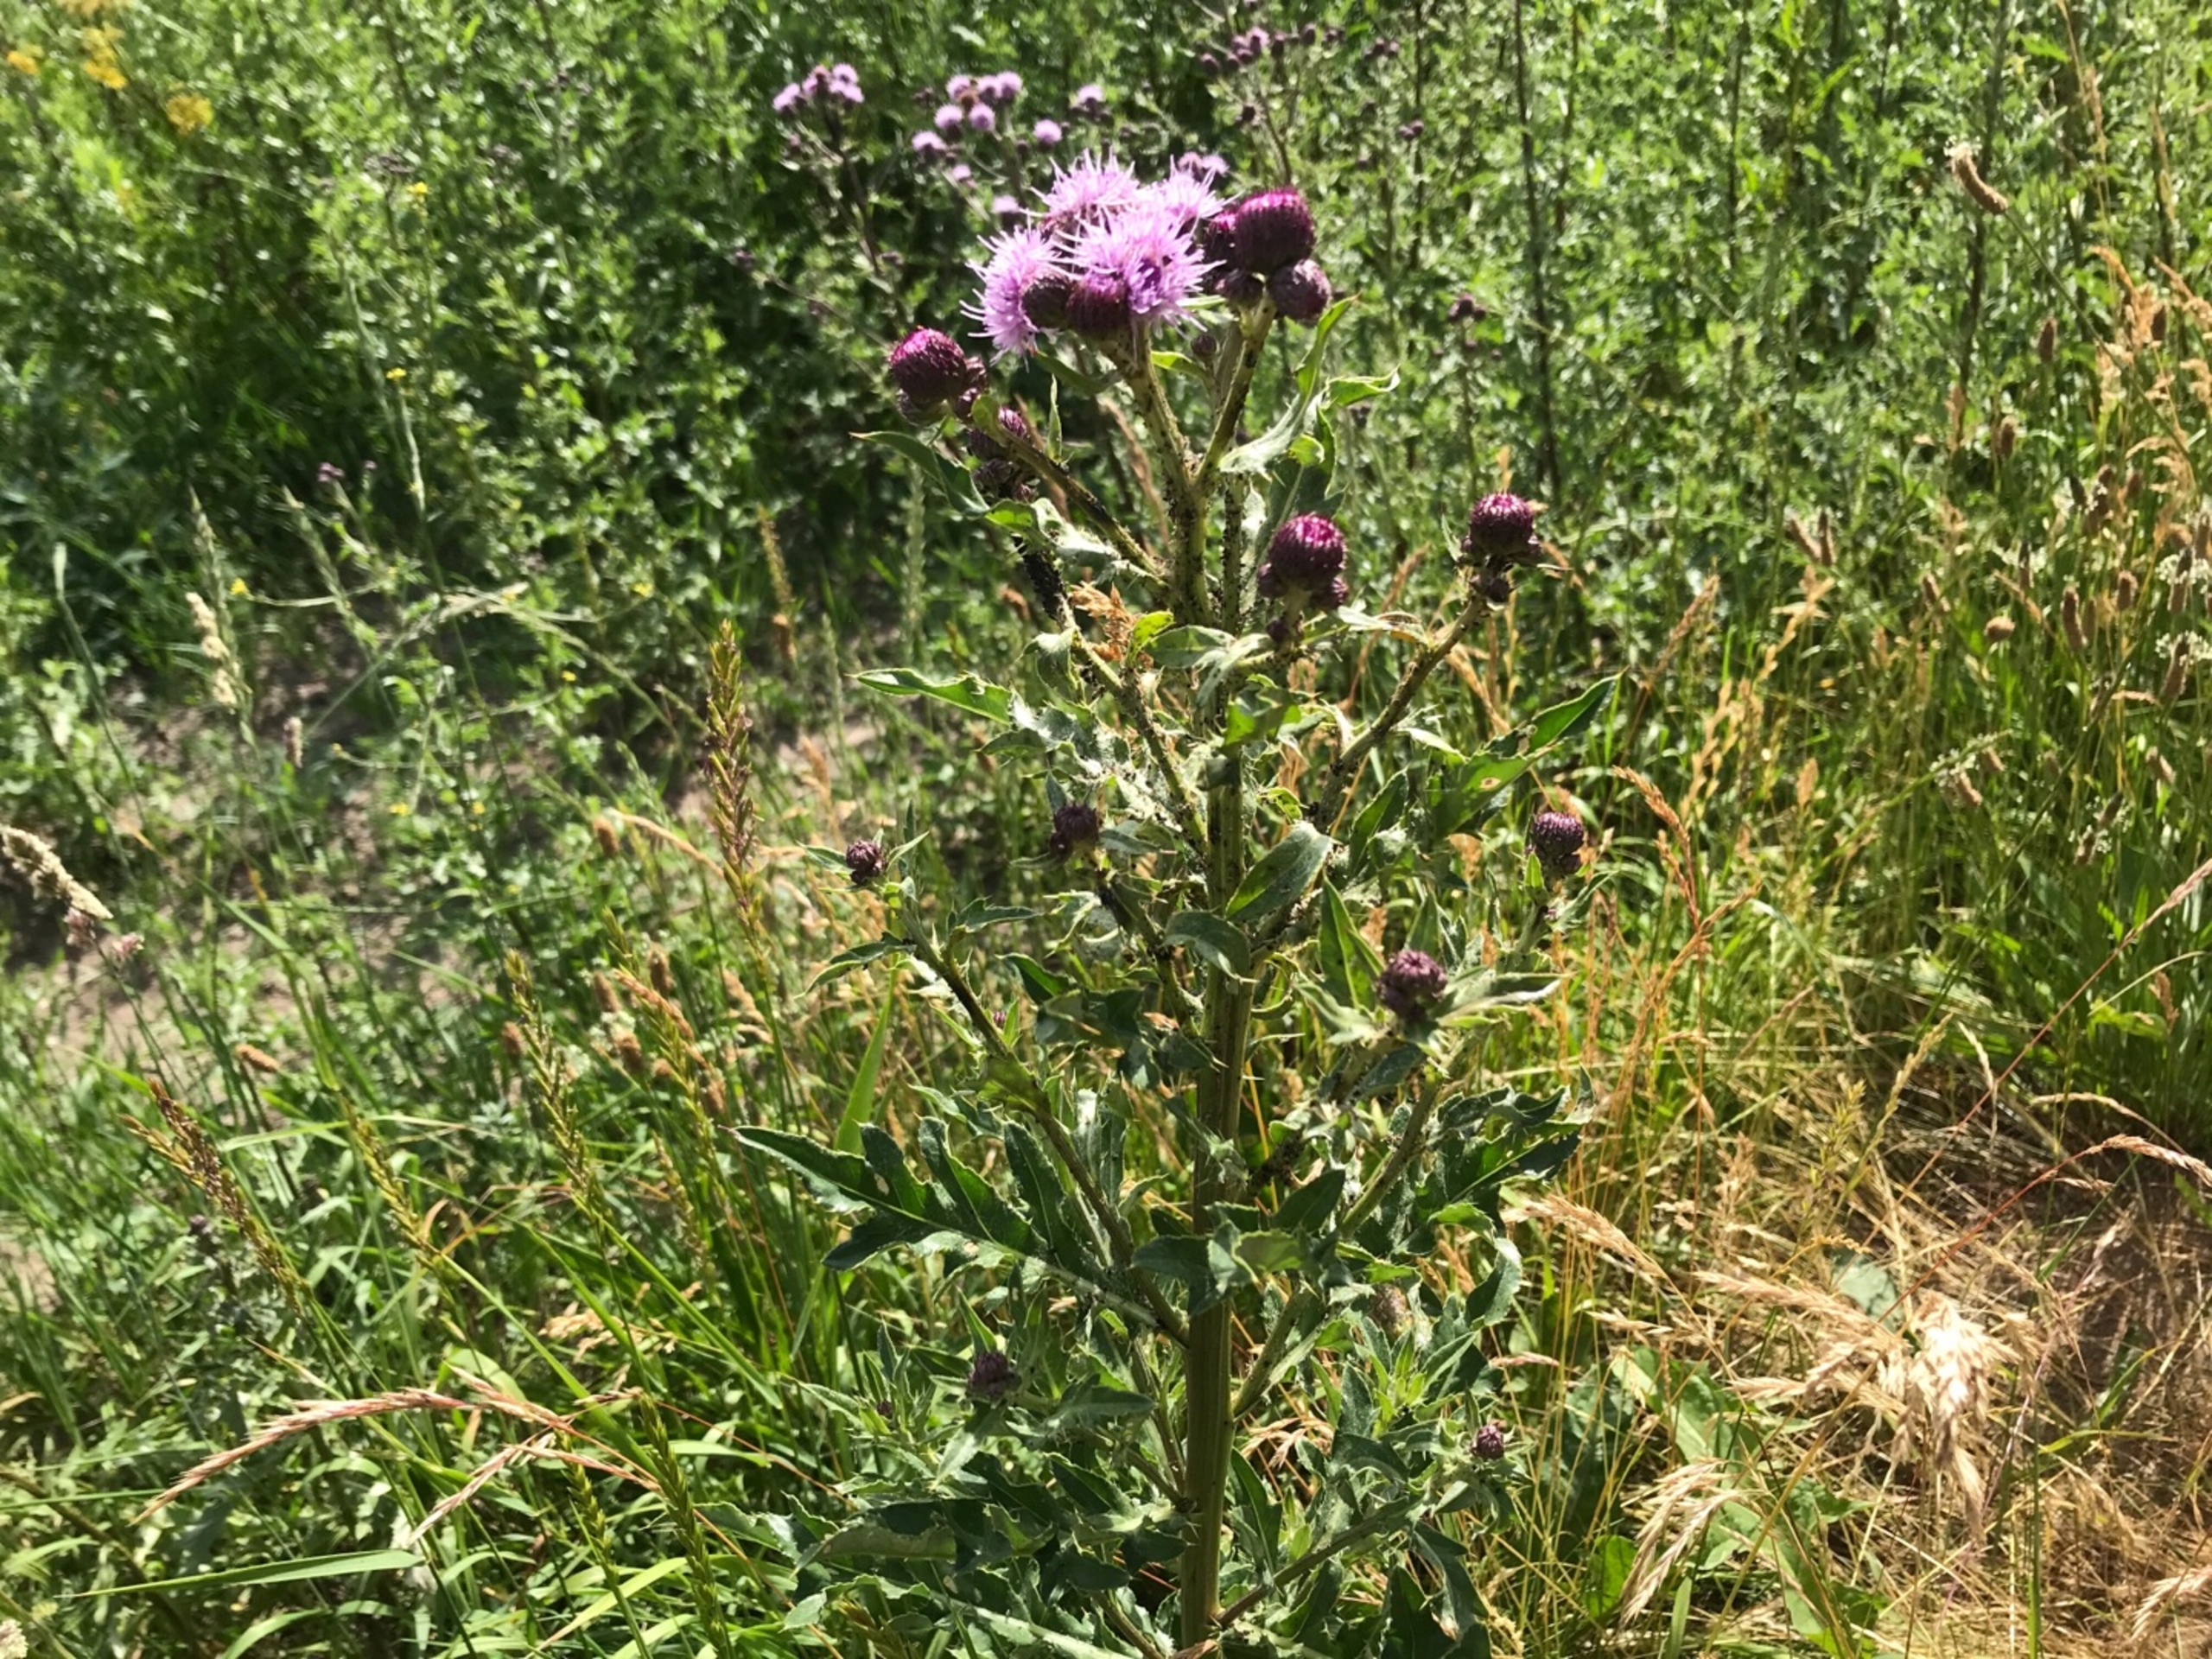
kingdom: Plantae
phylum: Tracheophyta
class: Magnoliopsida
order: Asterales
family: Asteraceae
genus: Cirsium
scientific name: Cirsium arvense
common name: Ager-tidsel
